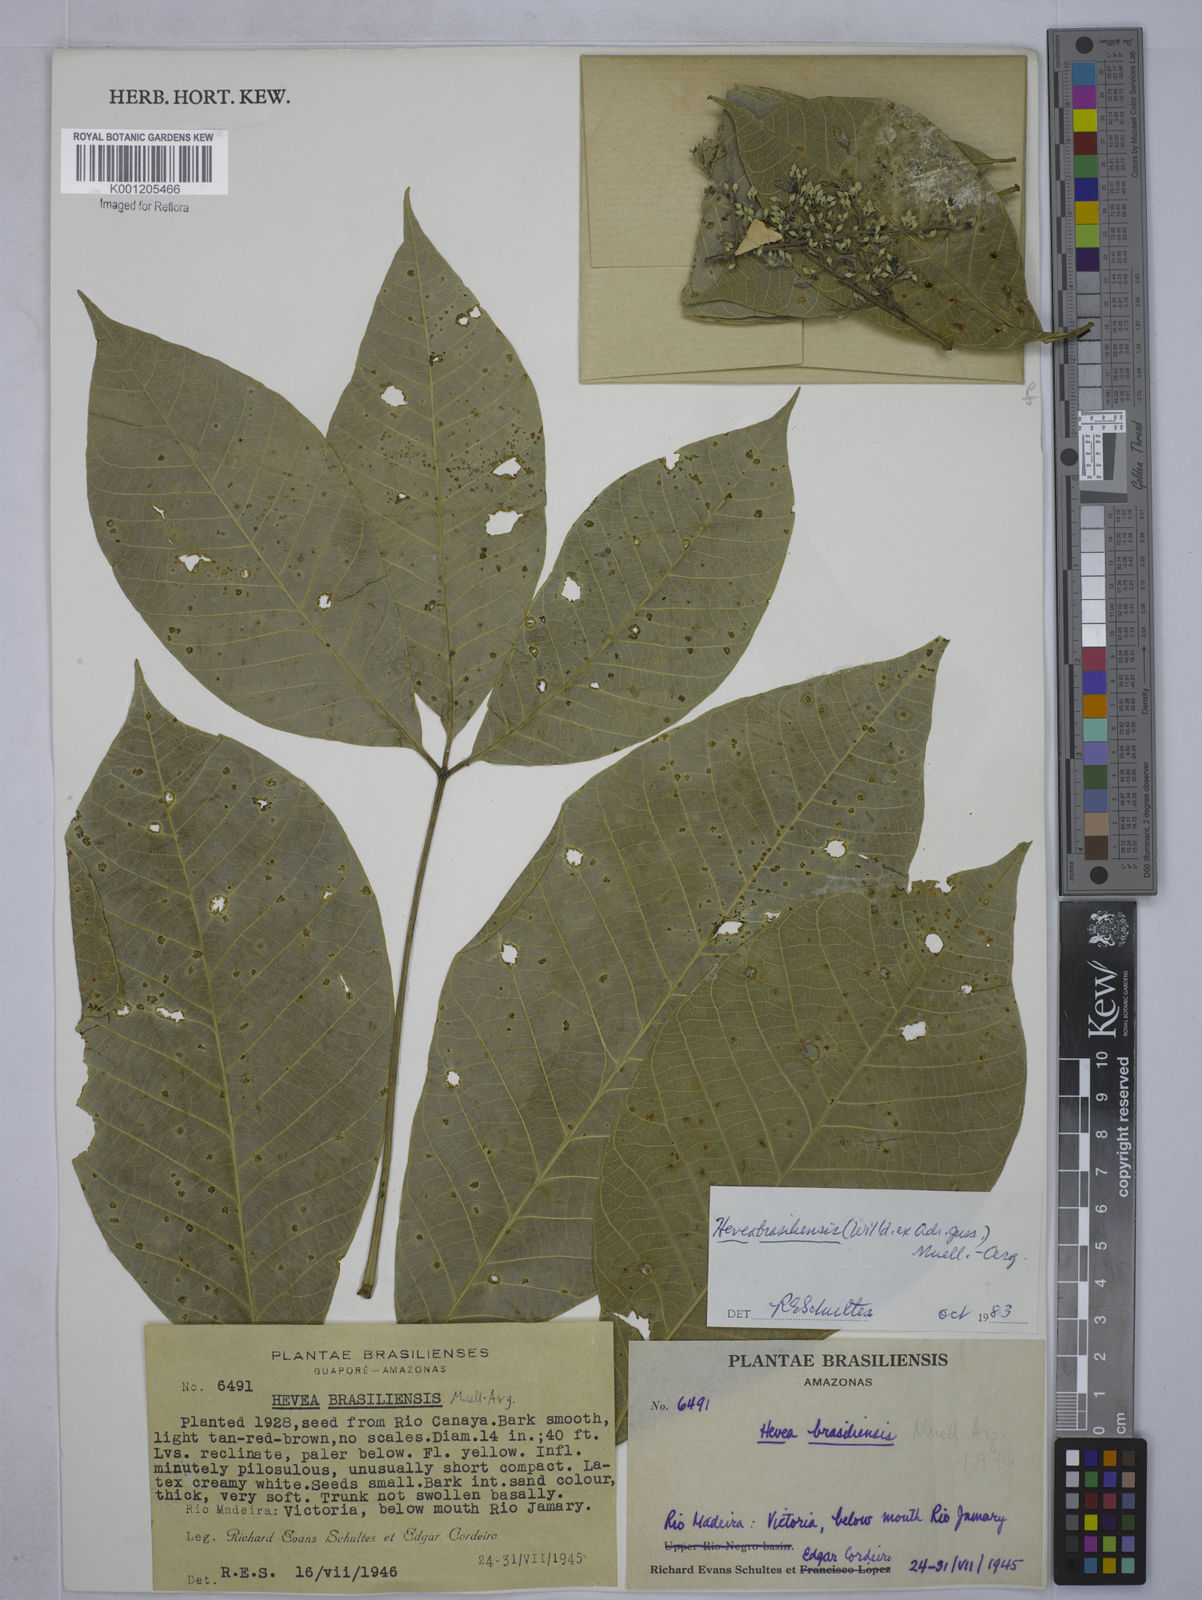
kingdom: Plantae
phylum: Tracheophyta
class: Magnoliopsida
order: Malpighiales
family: Euphorbiaceae
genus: Hevea
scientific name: Hevea
